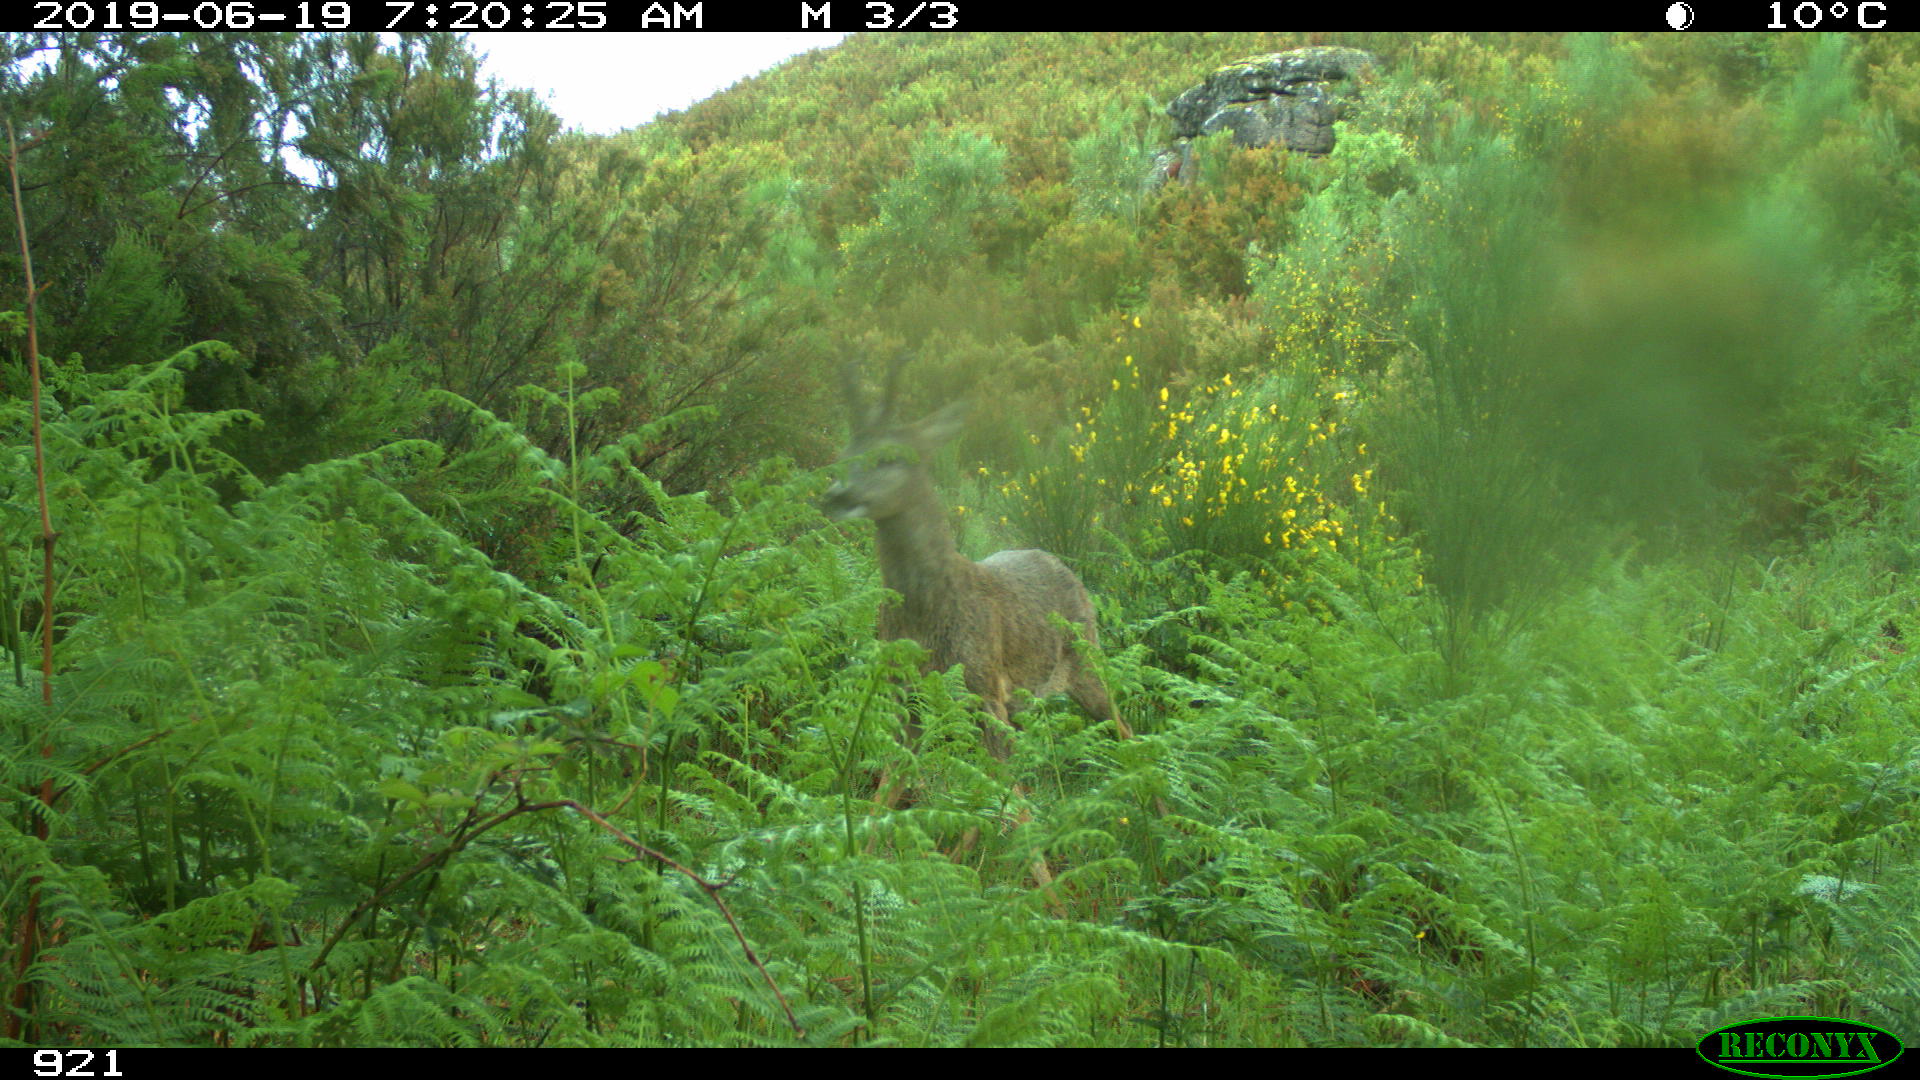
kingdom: Animalia
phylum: Chordata
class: Mammalia
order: Artiodactyla
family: Cervidae
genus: Capreolus
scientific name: Capreolus capreolus
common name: Western roe deer
